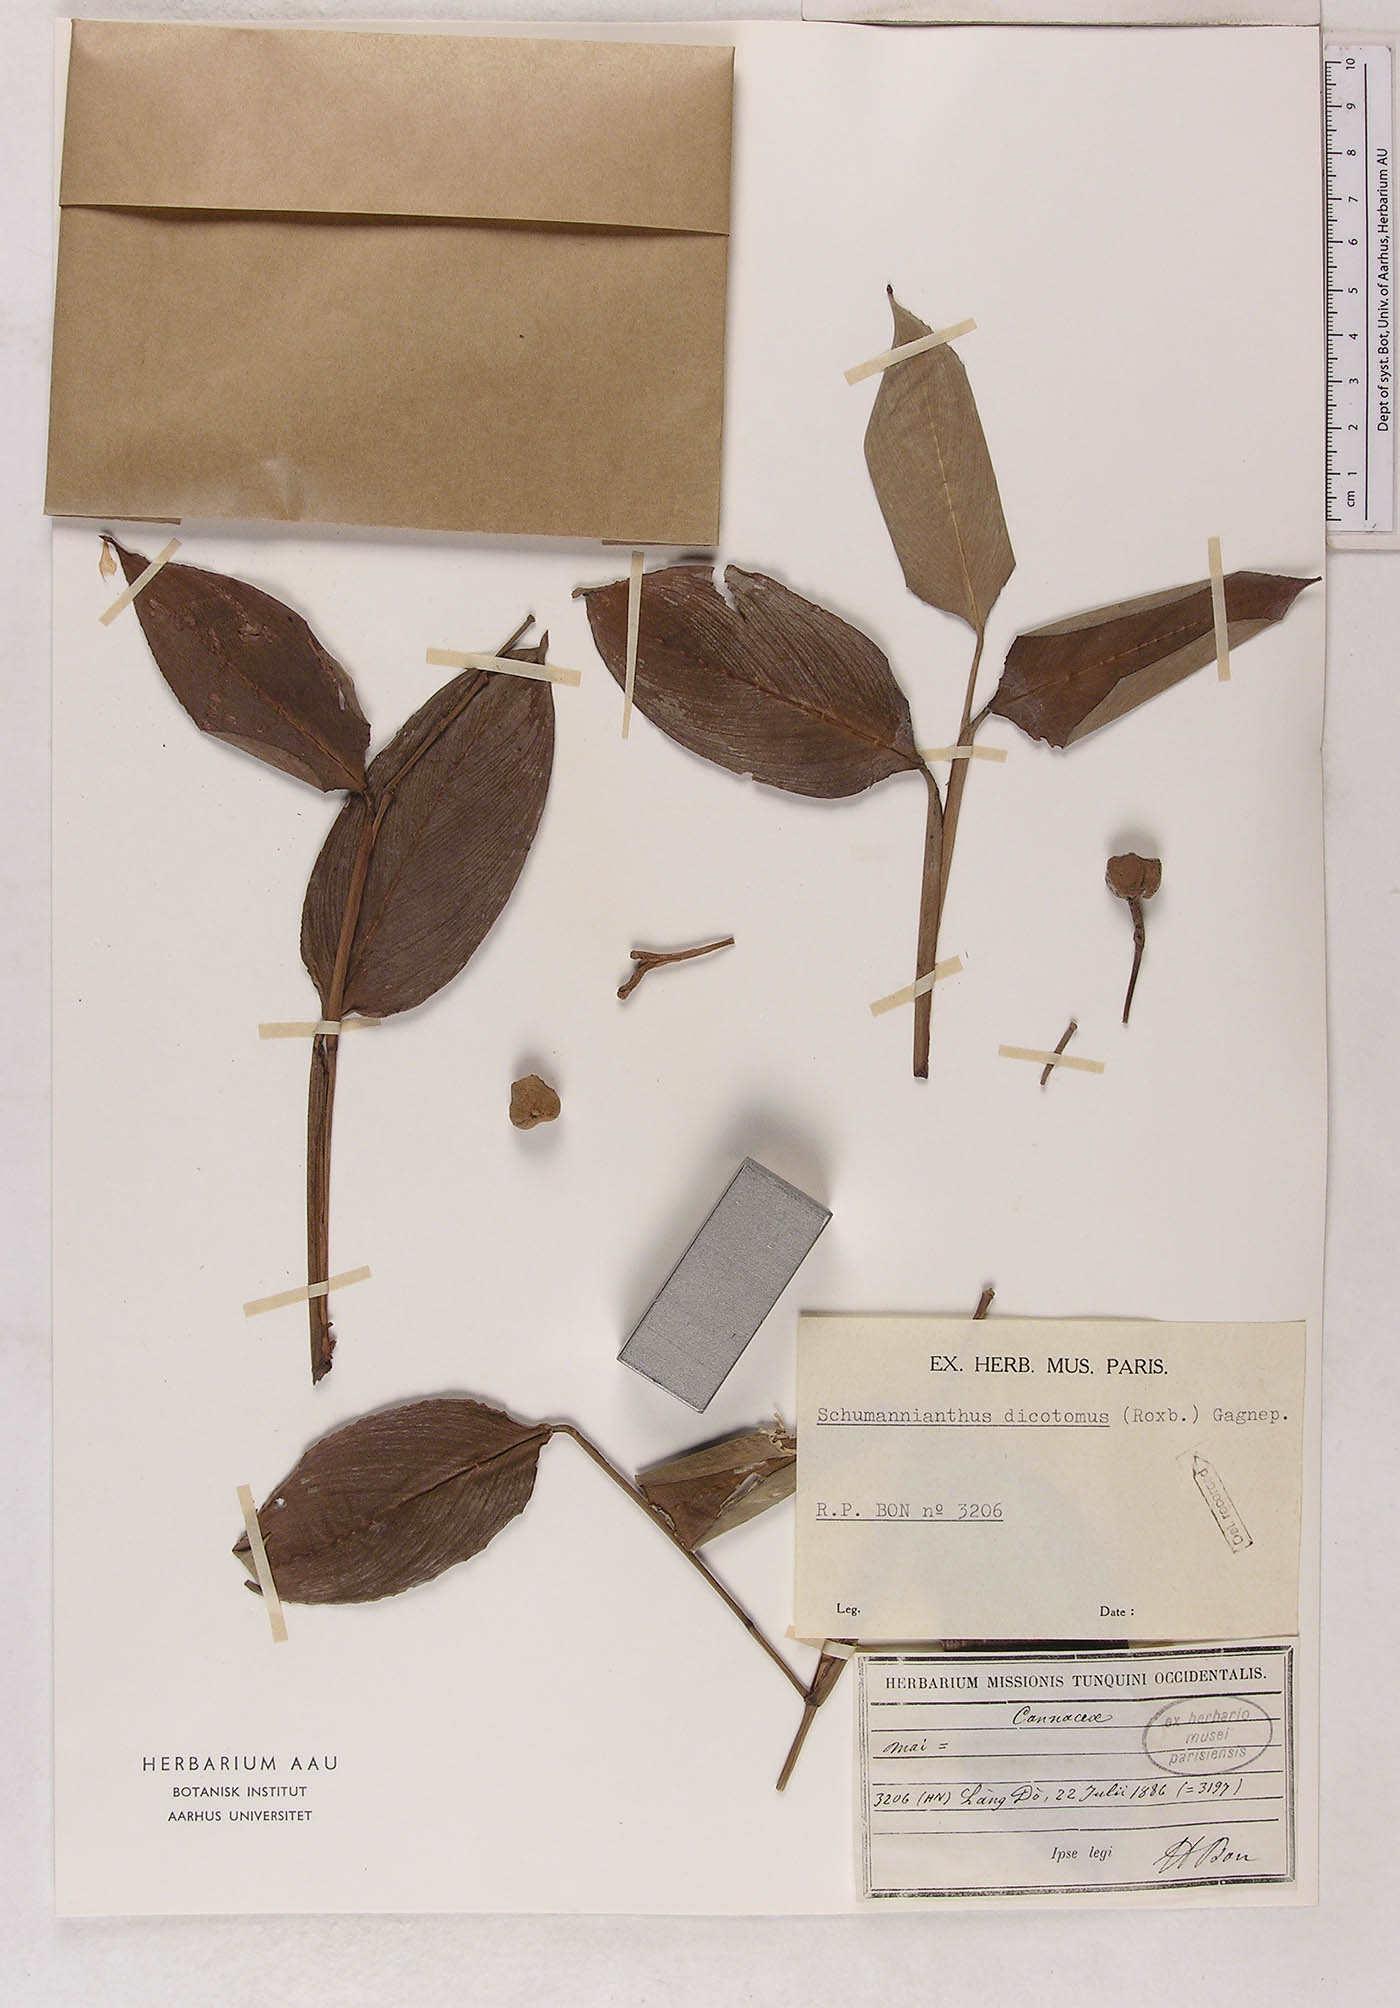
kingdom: Plantae
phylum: Tracheophyta
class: Liliopsida
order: Zingiberales
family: Marantaceae
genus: Schumannianthus
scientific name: Schumannianthus benthamianus
